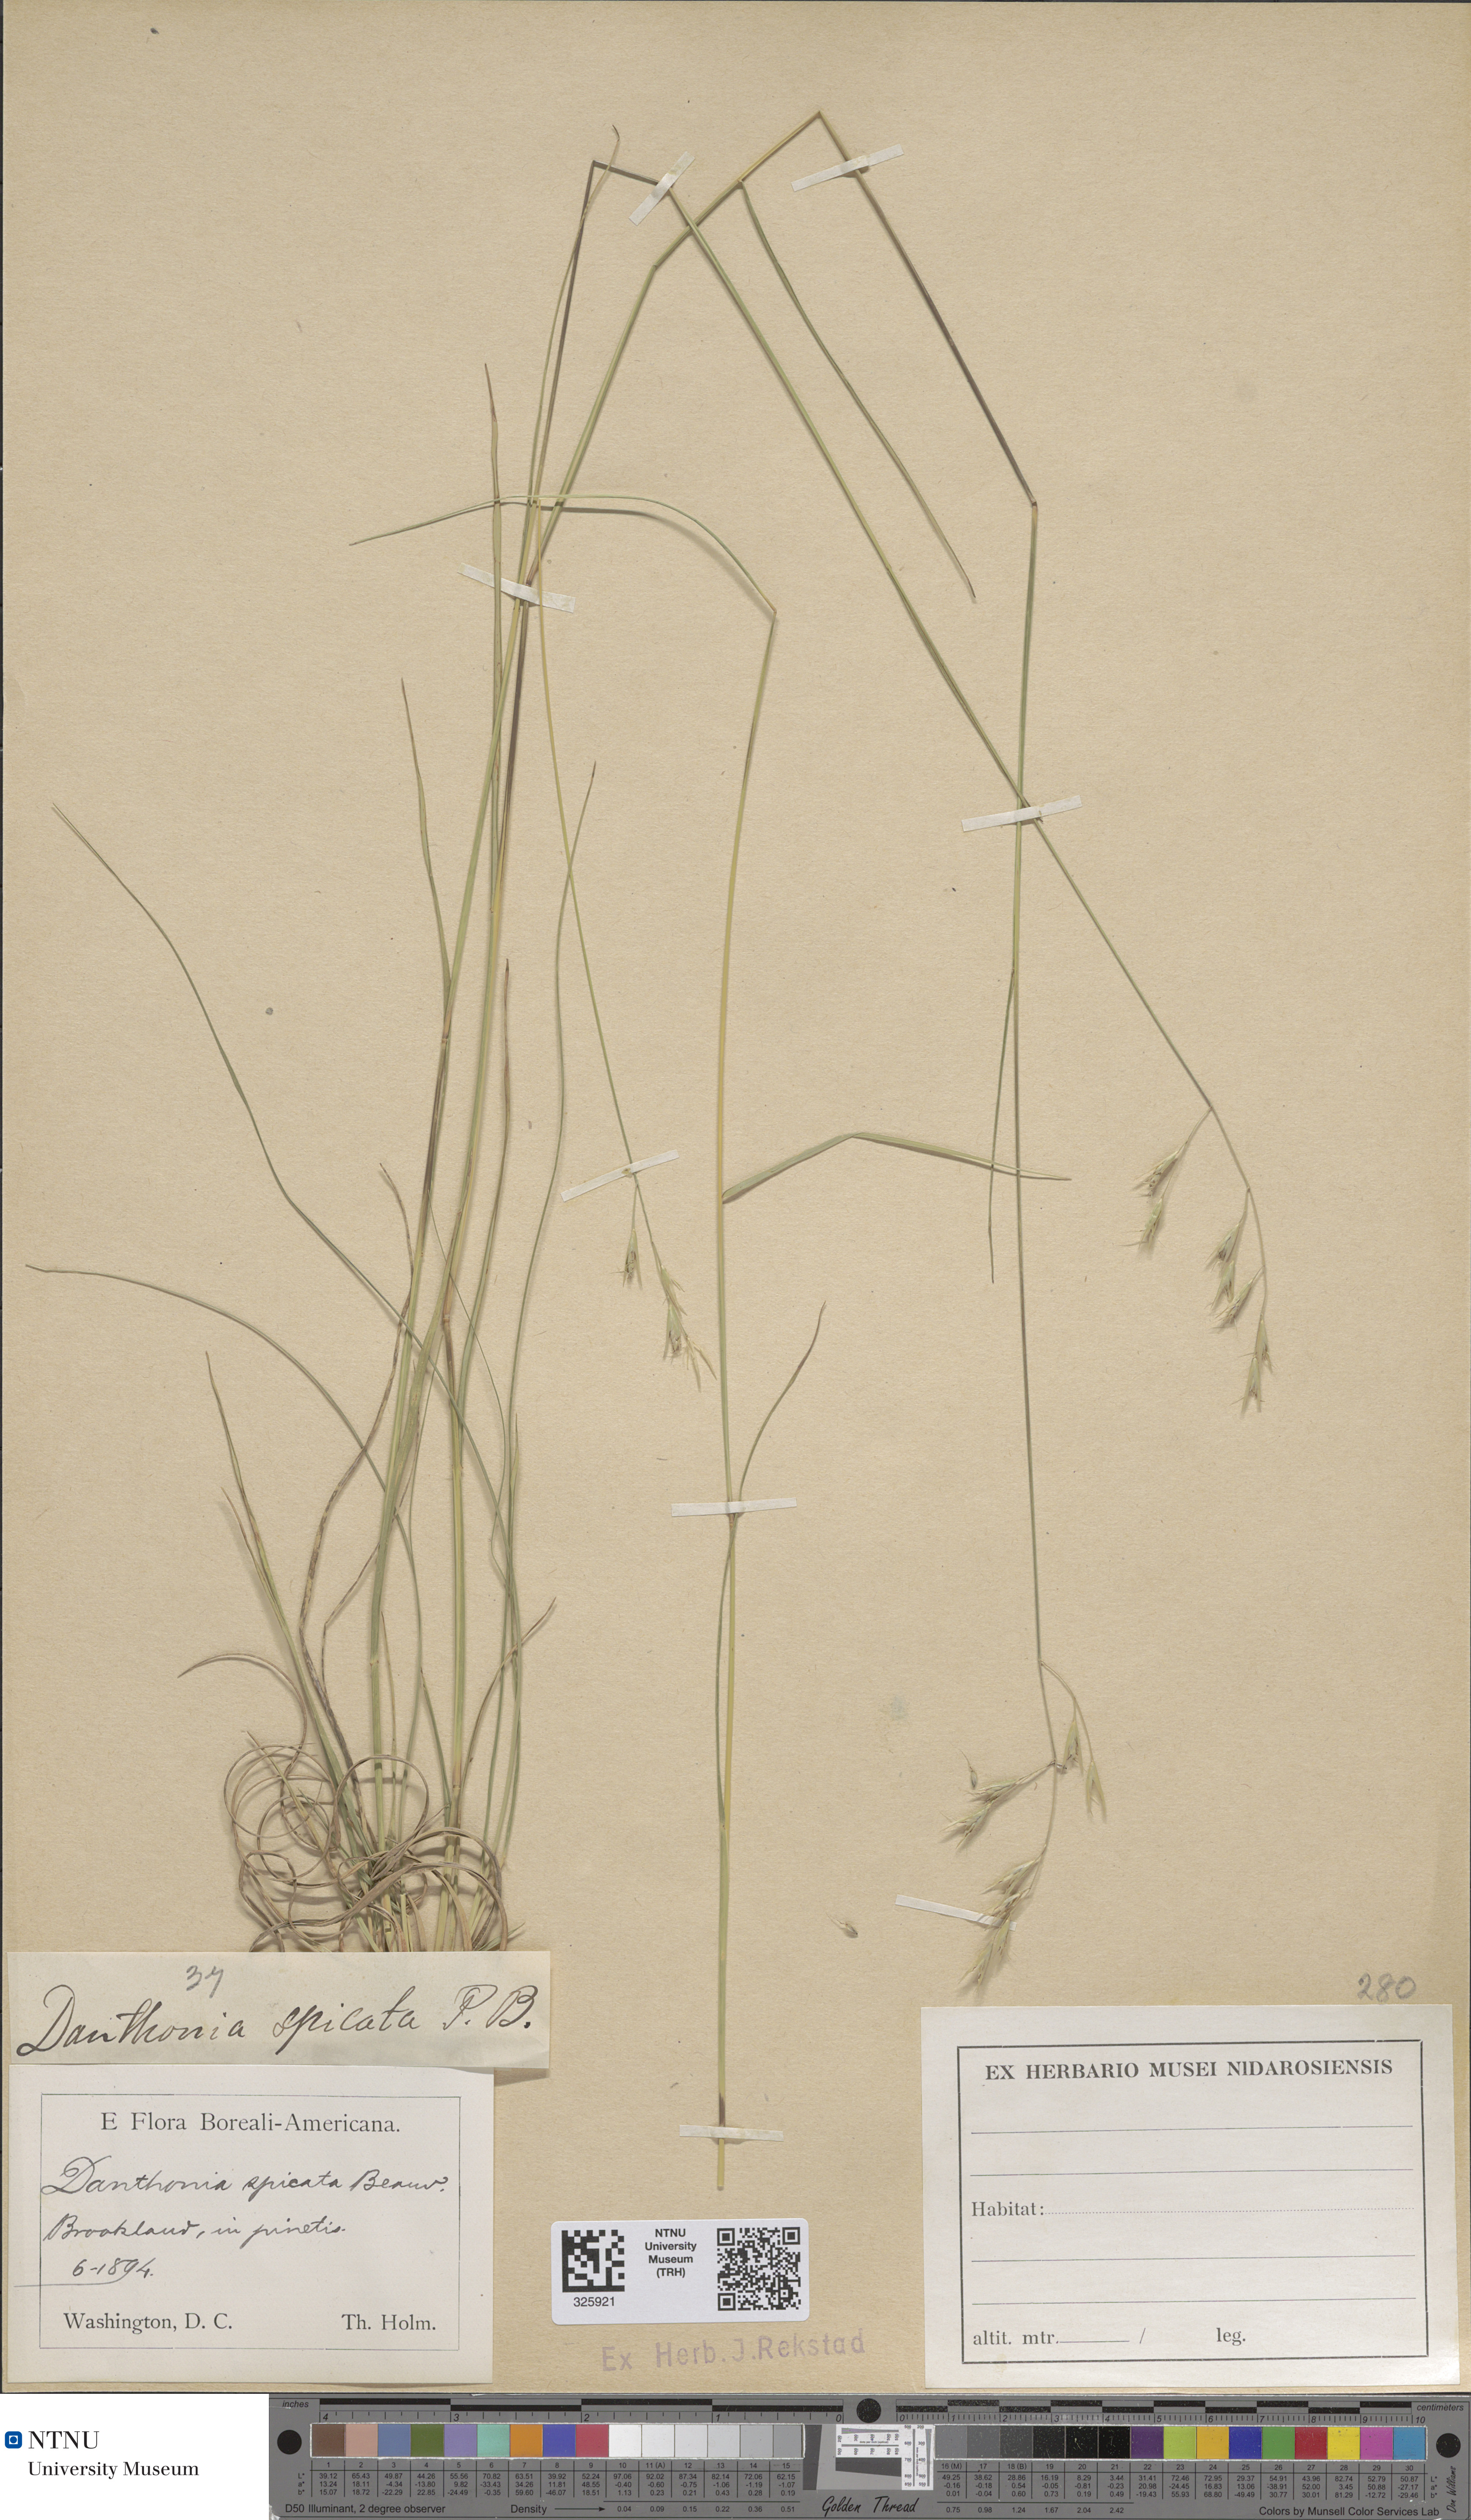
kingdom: Plantae
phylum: Tracheophyta
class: Liliopsida
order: Poales
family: Poaceae
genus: Danthonia
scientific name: Danthonia spicata
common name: Common wild oatgrass
